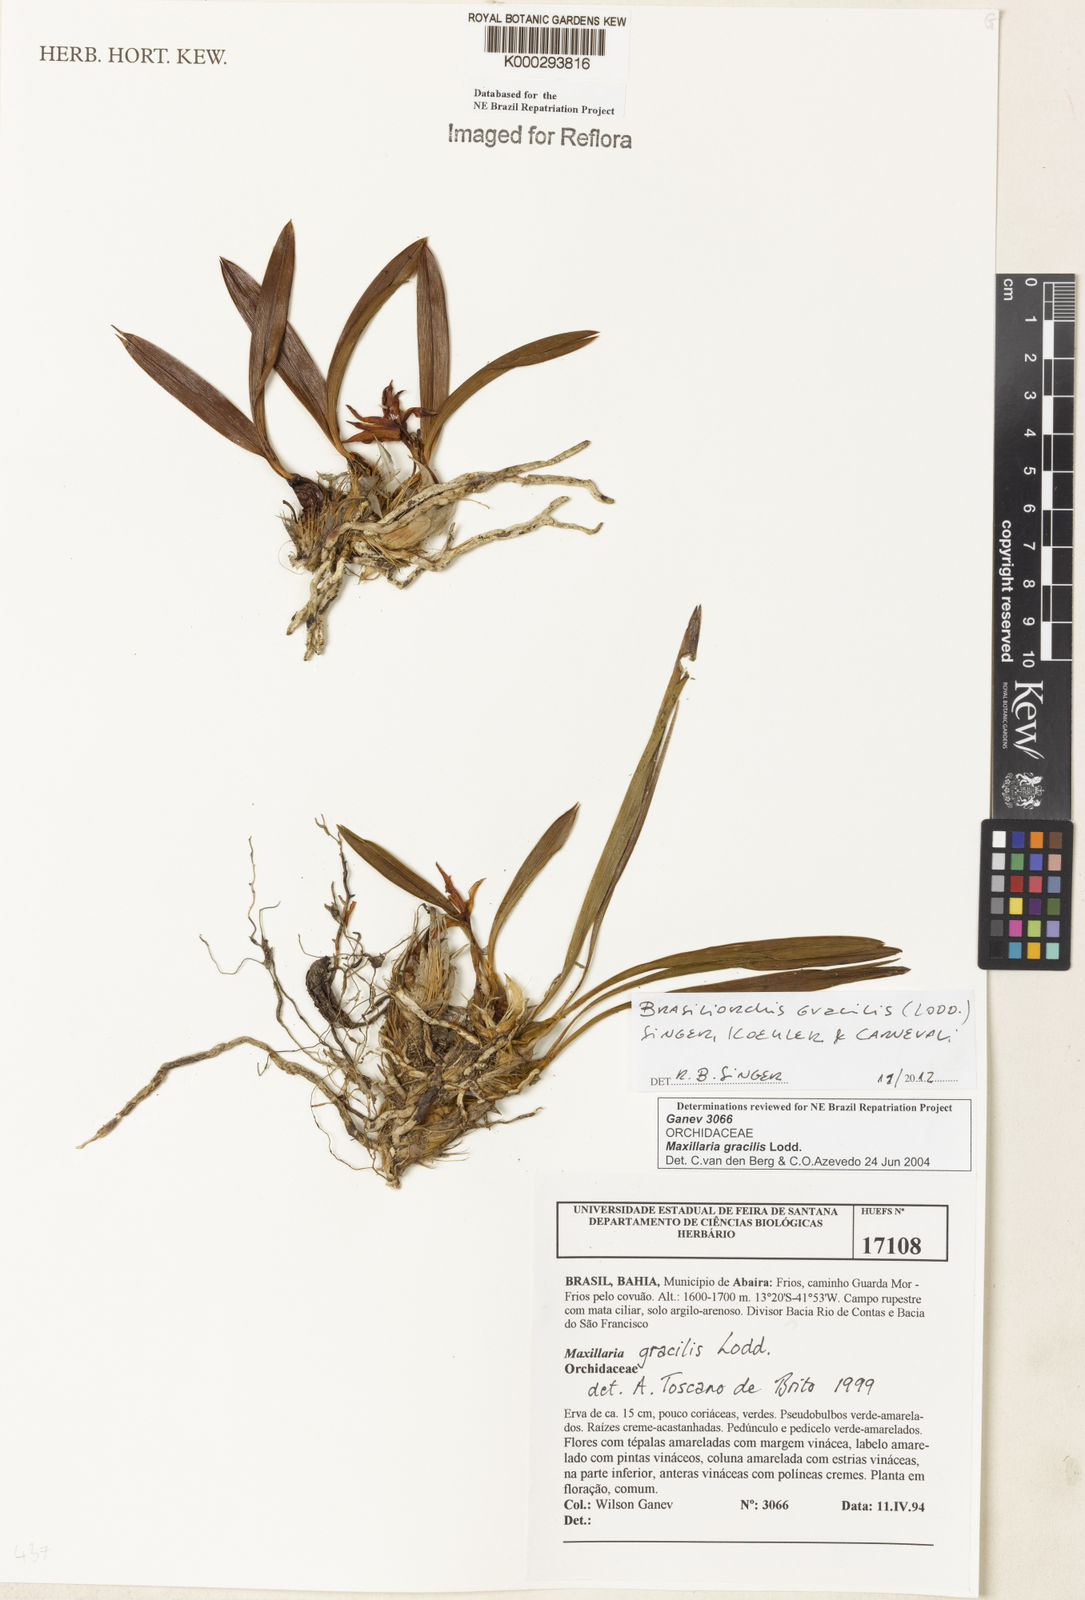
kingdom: Plantae
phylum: Tracheophyta
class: Liliopsida
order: Asparagales
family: Orchidaceae
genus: Maxillaria
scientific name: Maxillaria
